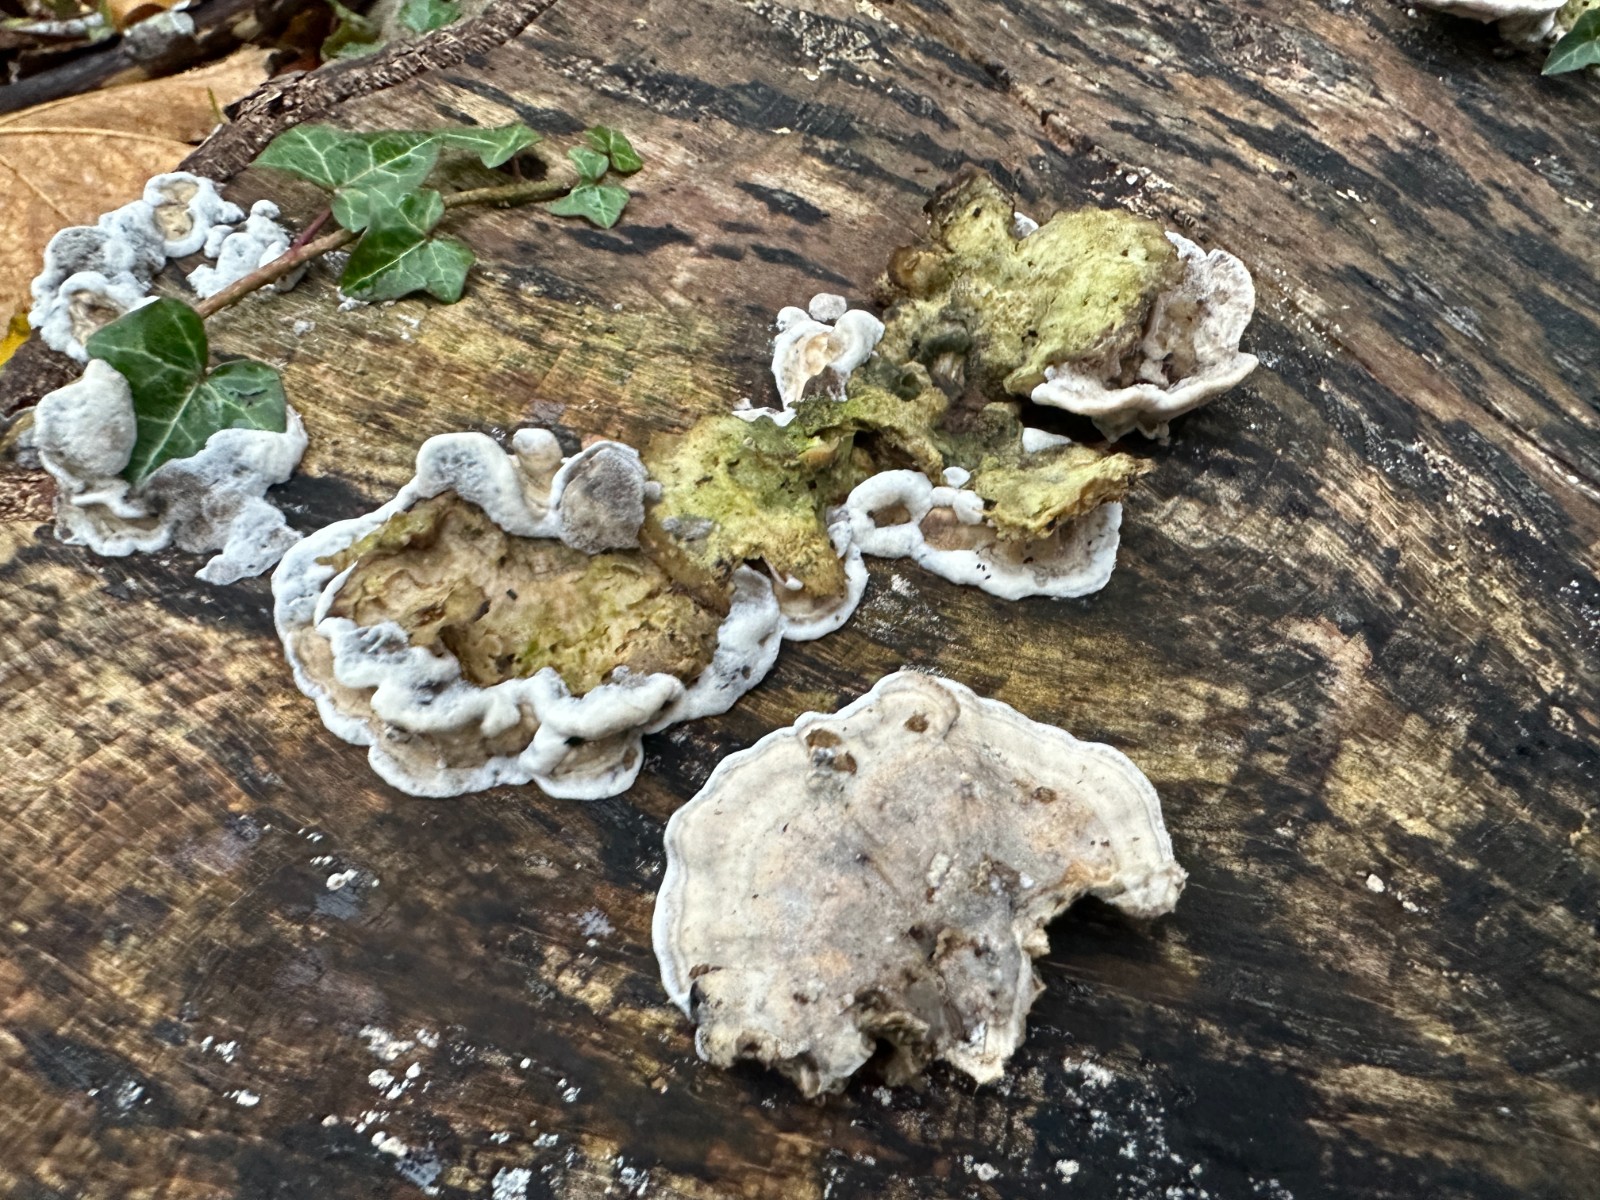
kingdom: Fungi
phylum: Basidiomycota
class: Agaricomycetes
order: Polyporales
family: Phanerochaetaceae
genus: Bjerkandera
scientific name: Bjerkandera adusta
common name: sveden sodporesvamp
